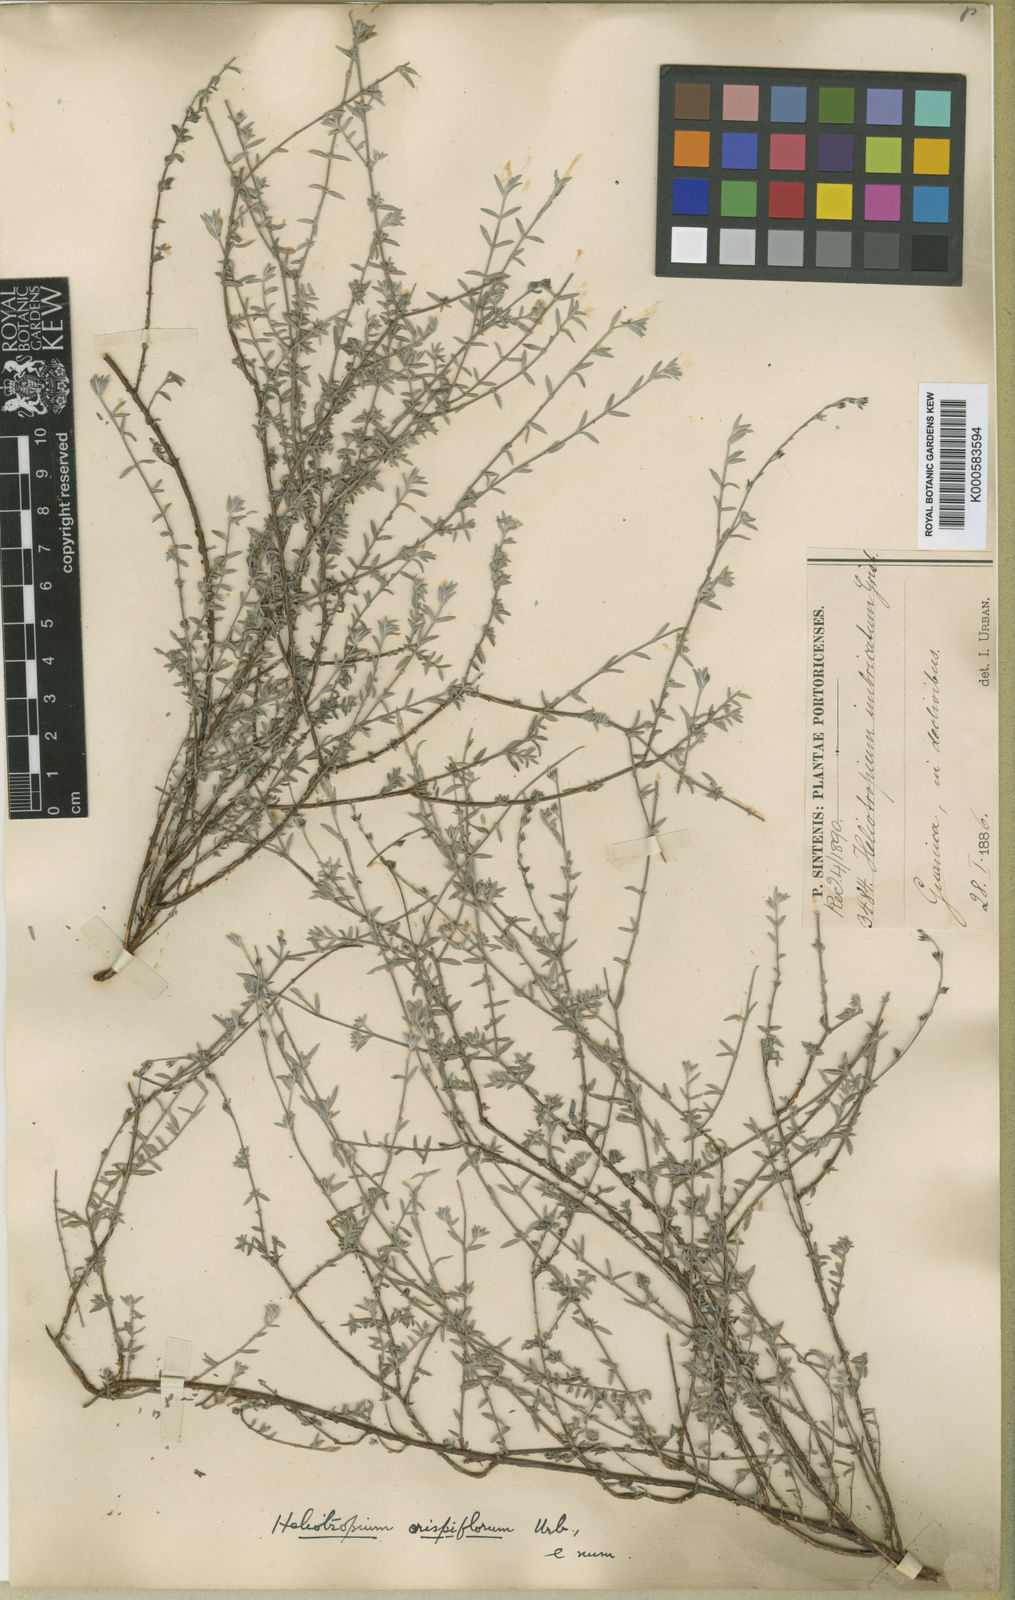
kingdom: Plantae
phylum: Tracheophyta
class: Magnoliopsida
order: Boraginales
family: Heliotropiaceae
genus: Heliotropium
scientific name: Heliotropium
